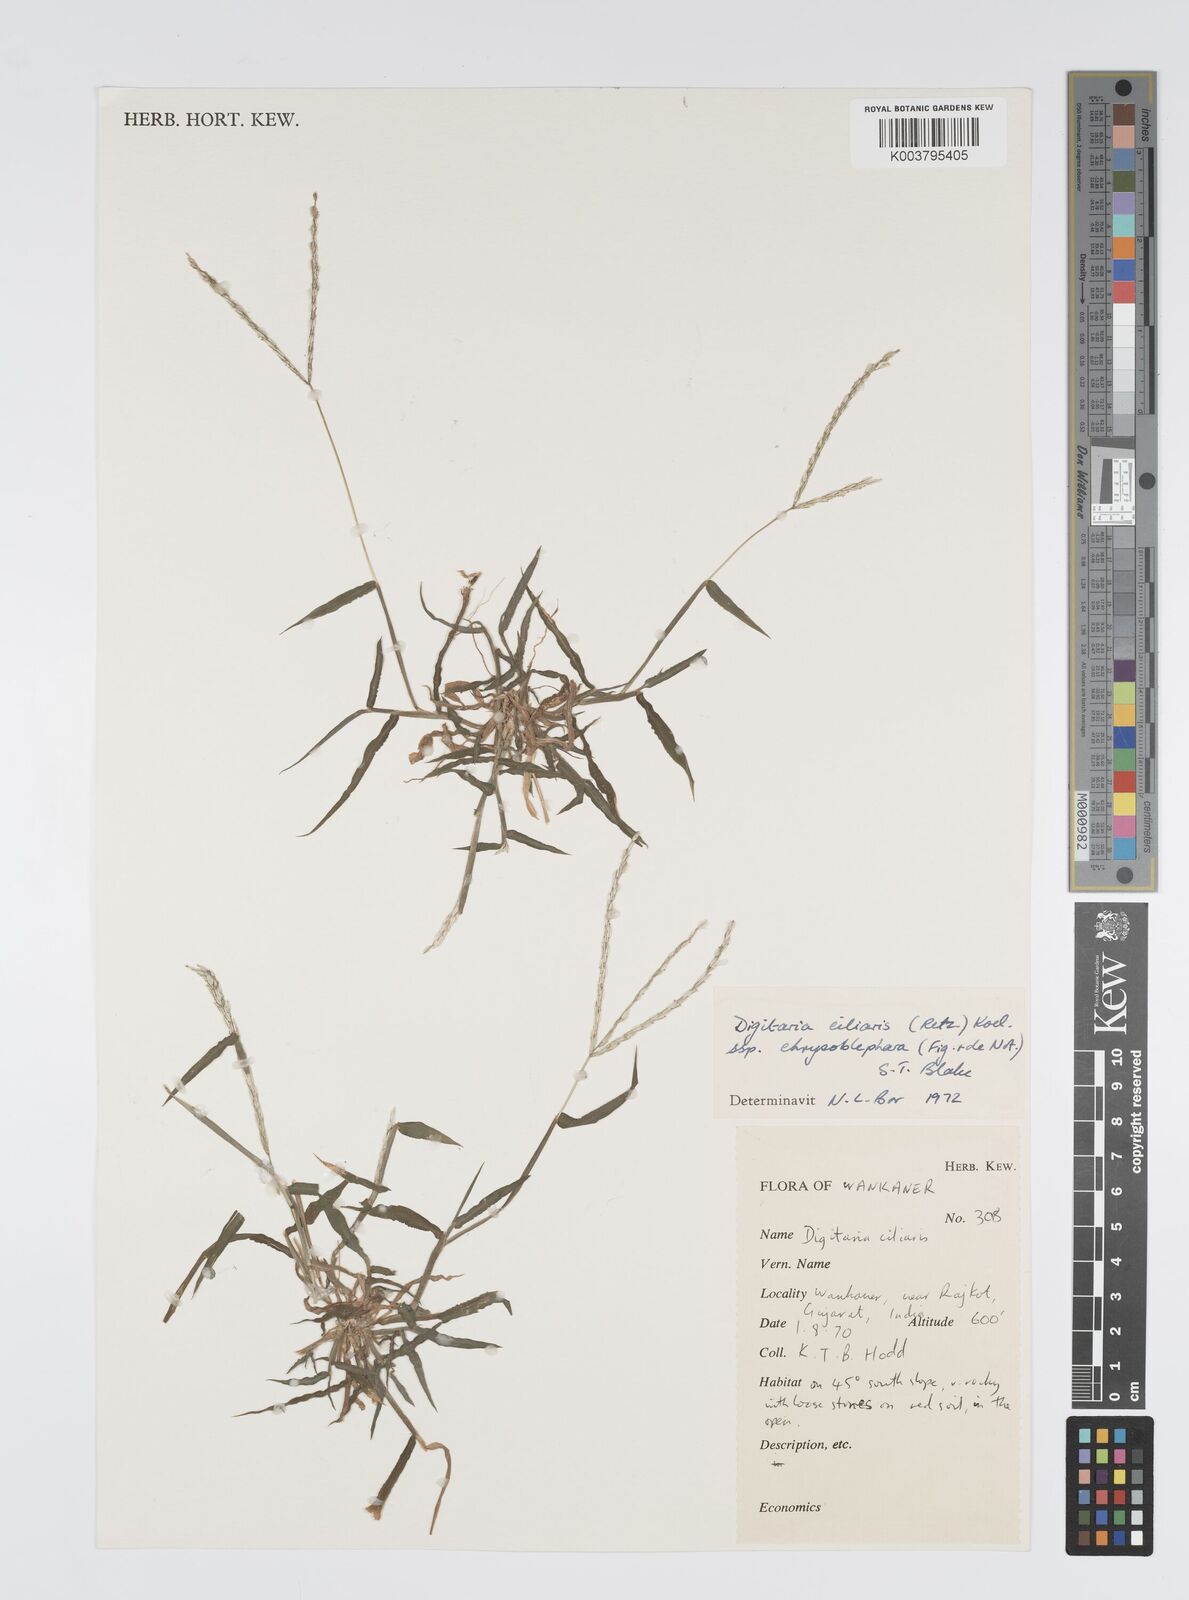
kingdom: Plantae
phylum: Tracheophyta
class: Liliopsida
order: Poales
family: Poaceae
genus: Digitaria
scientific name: Digitaria ciliaris
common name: Tropical finger-grass
